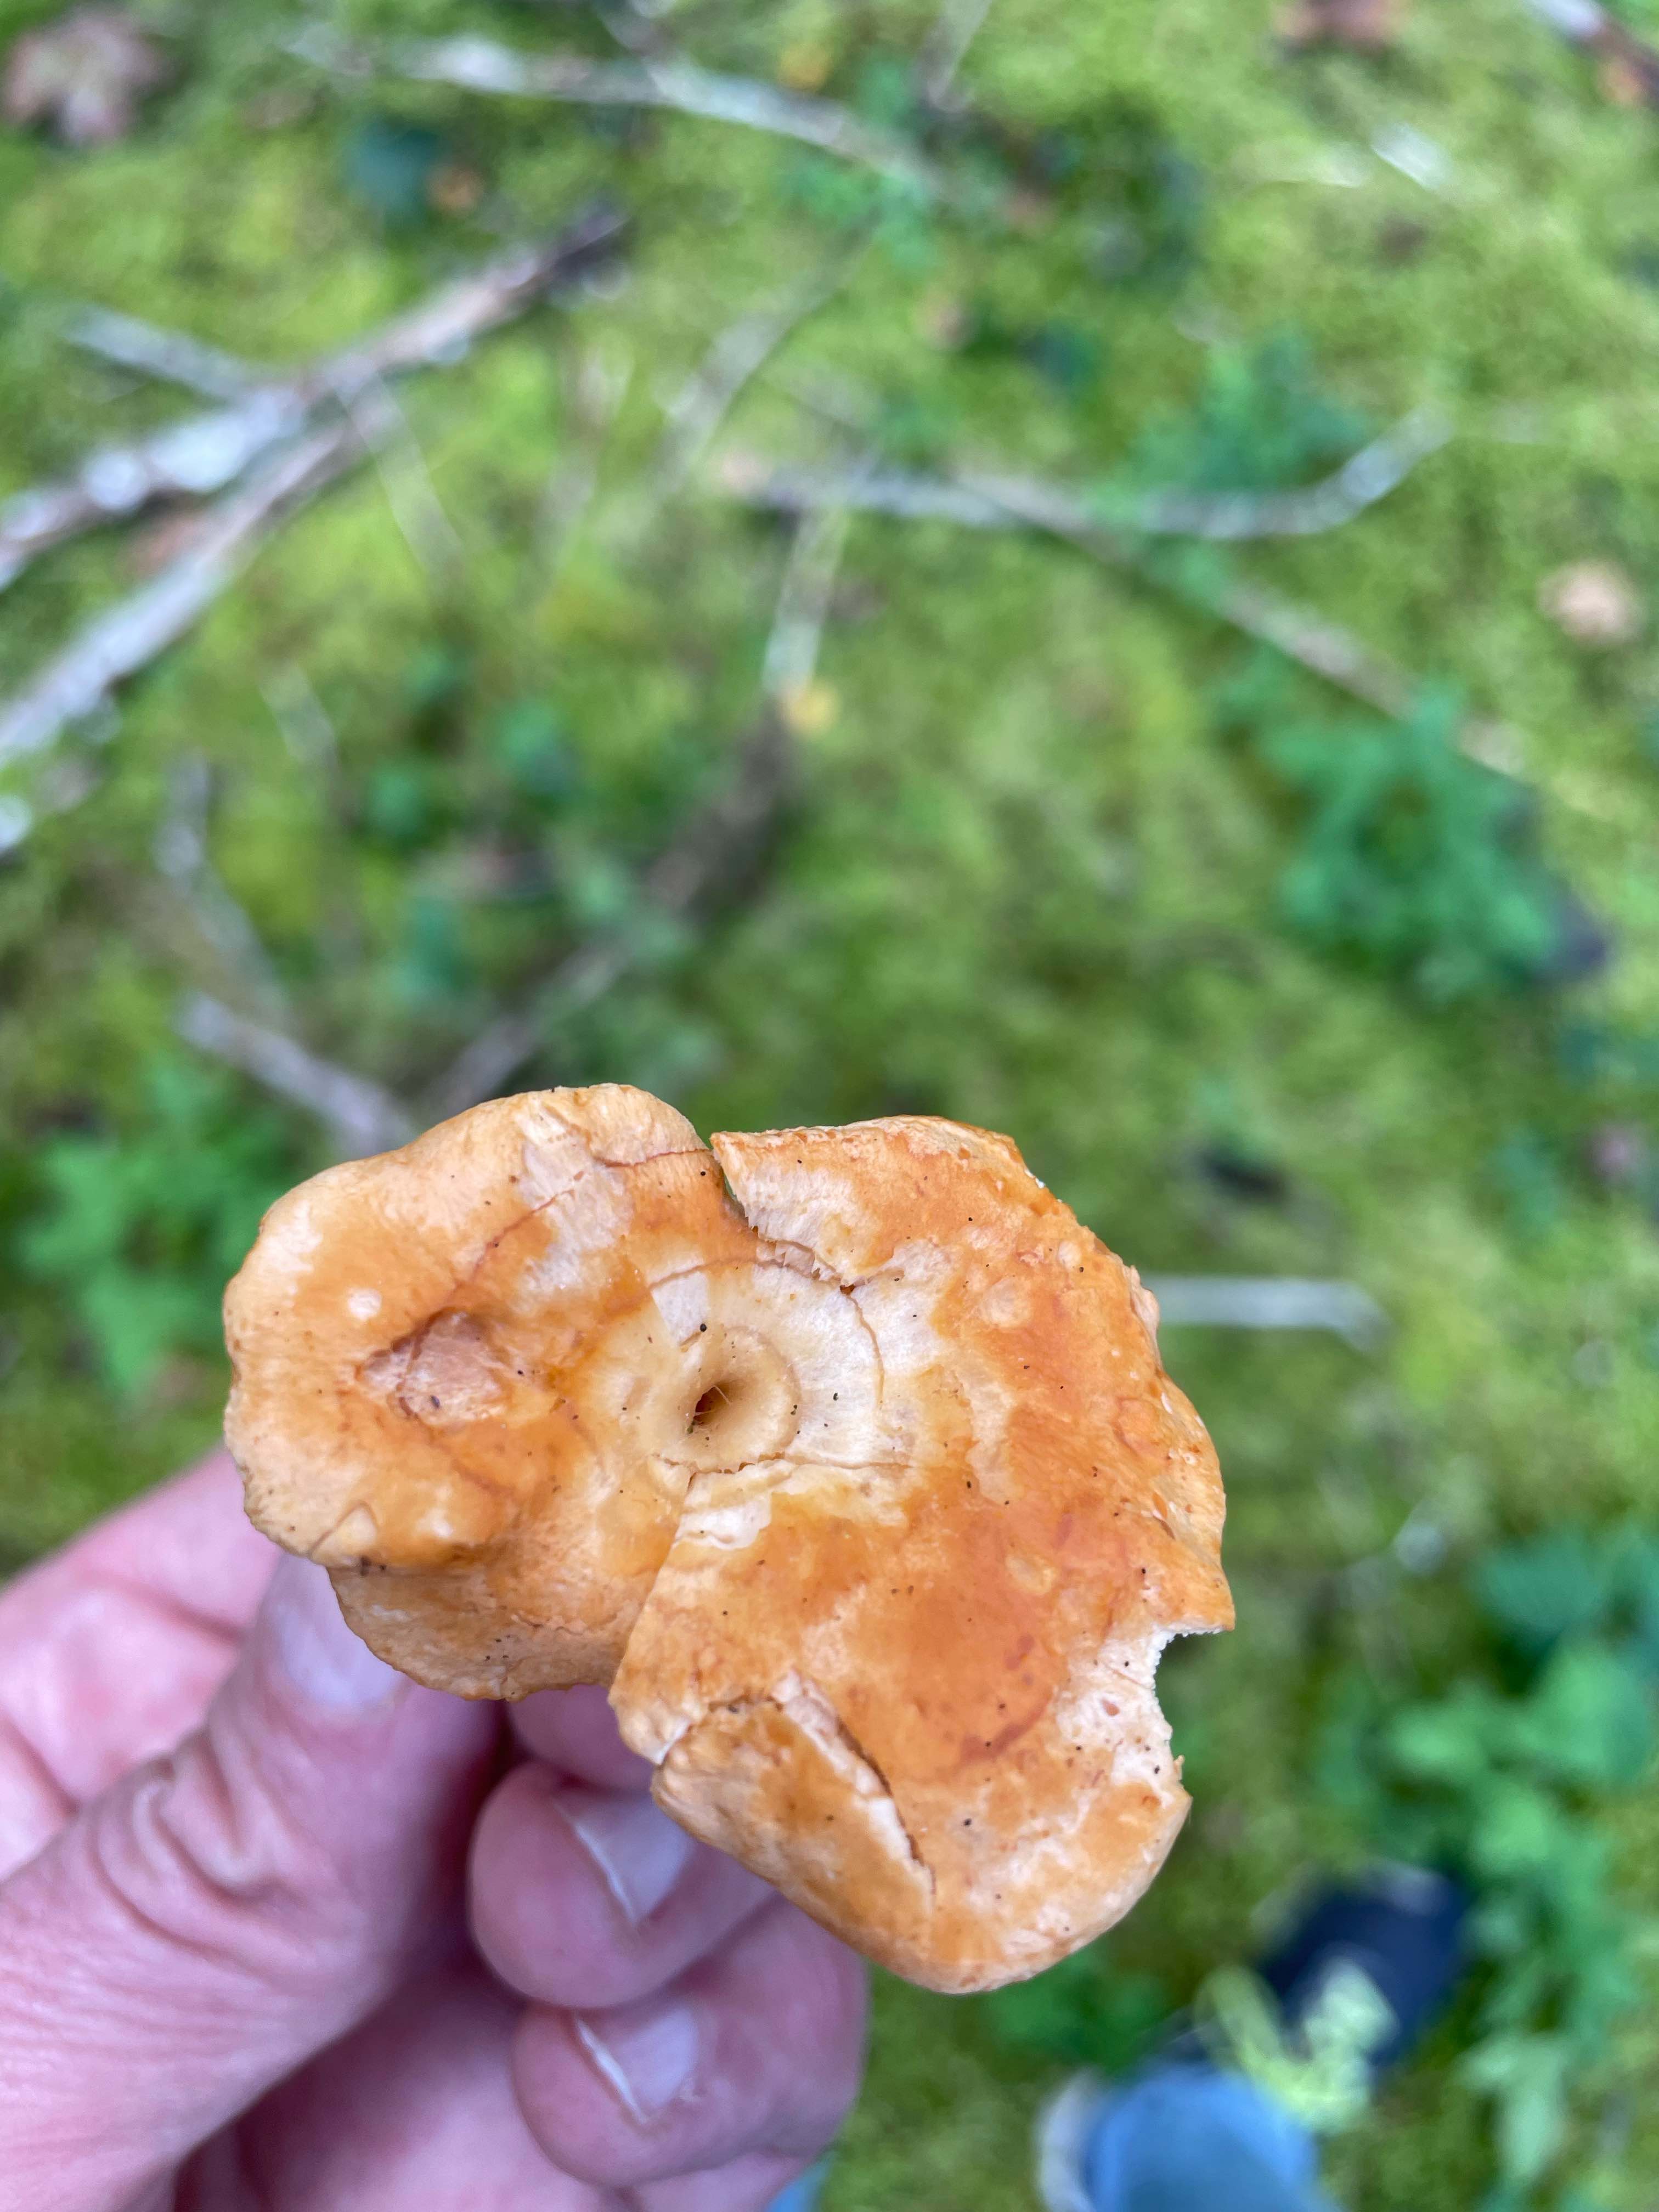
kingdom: Fungi
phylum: Basidiomycota
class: Agaricomycetes
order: Cantharellales
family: Hydnaceae
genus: Hydnum
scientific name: Hydnum
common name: pigsvamp
